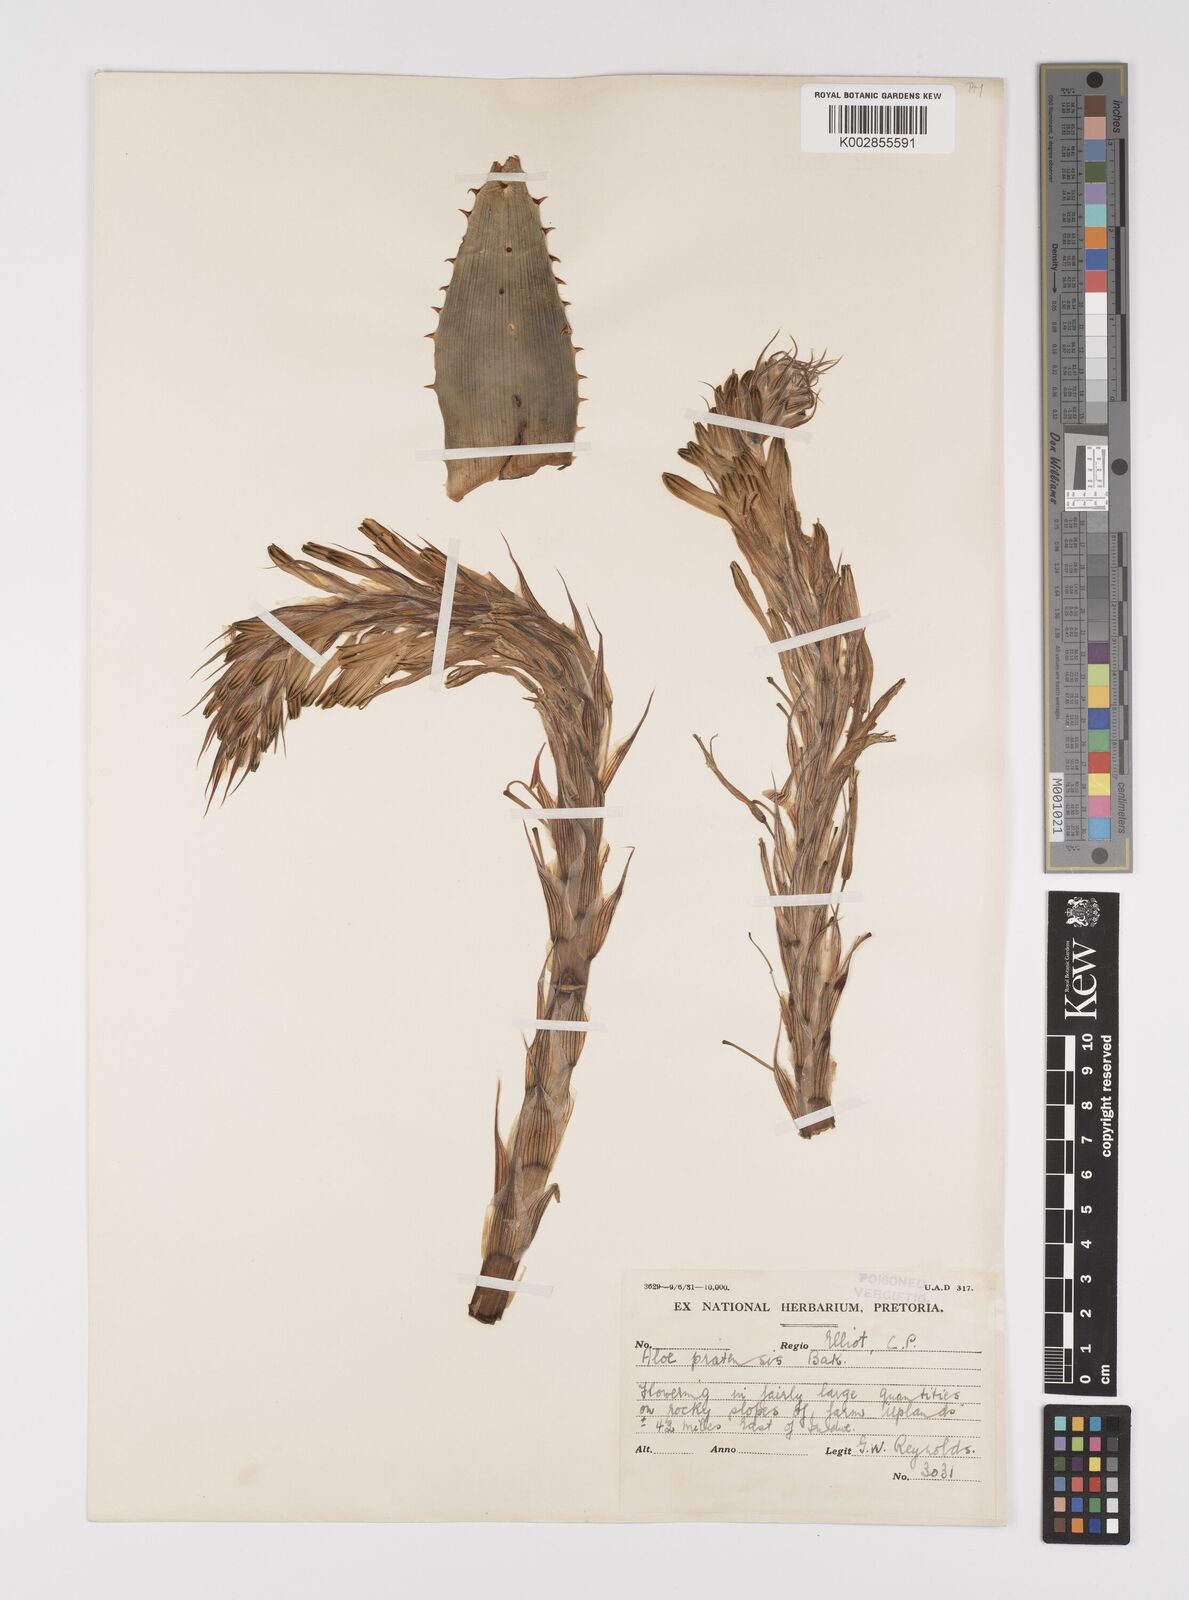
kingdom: Plantae
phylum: Tracheophyta
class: Liliopsida
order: Asparagales
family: Asphodelaceae
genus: Aloe
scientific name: Aloe pratensis
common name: Meadow aloe
